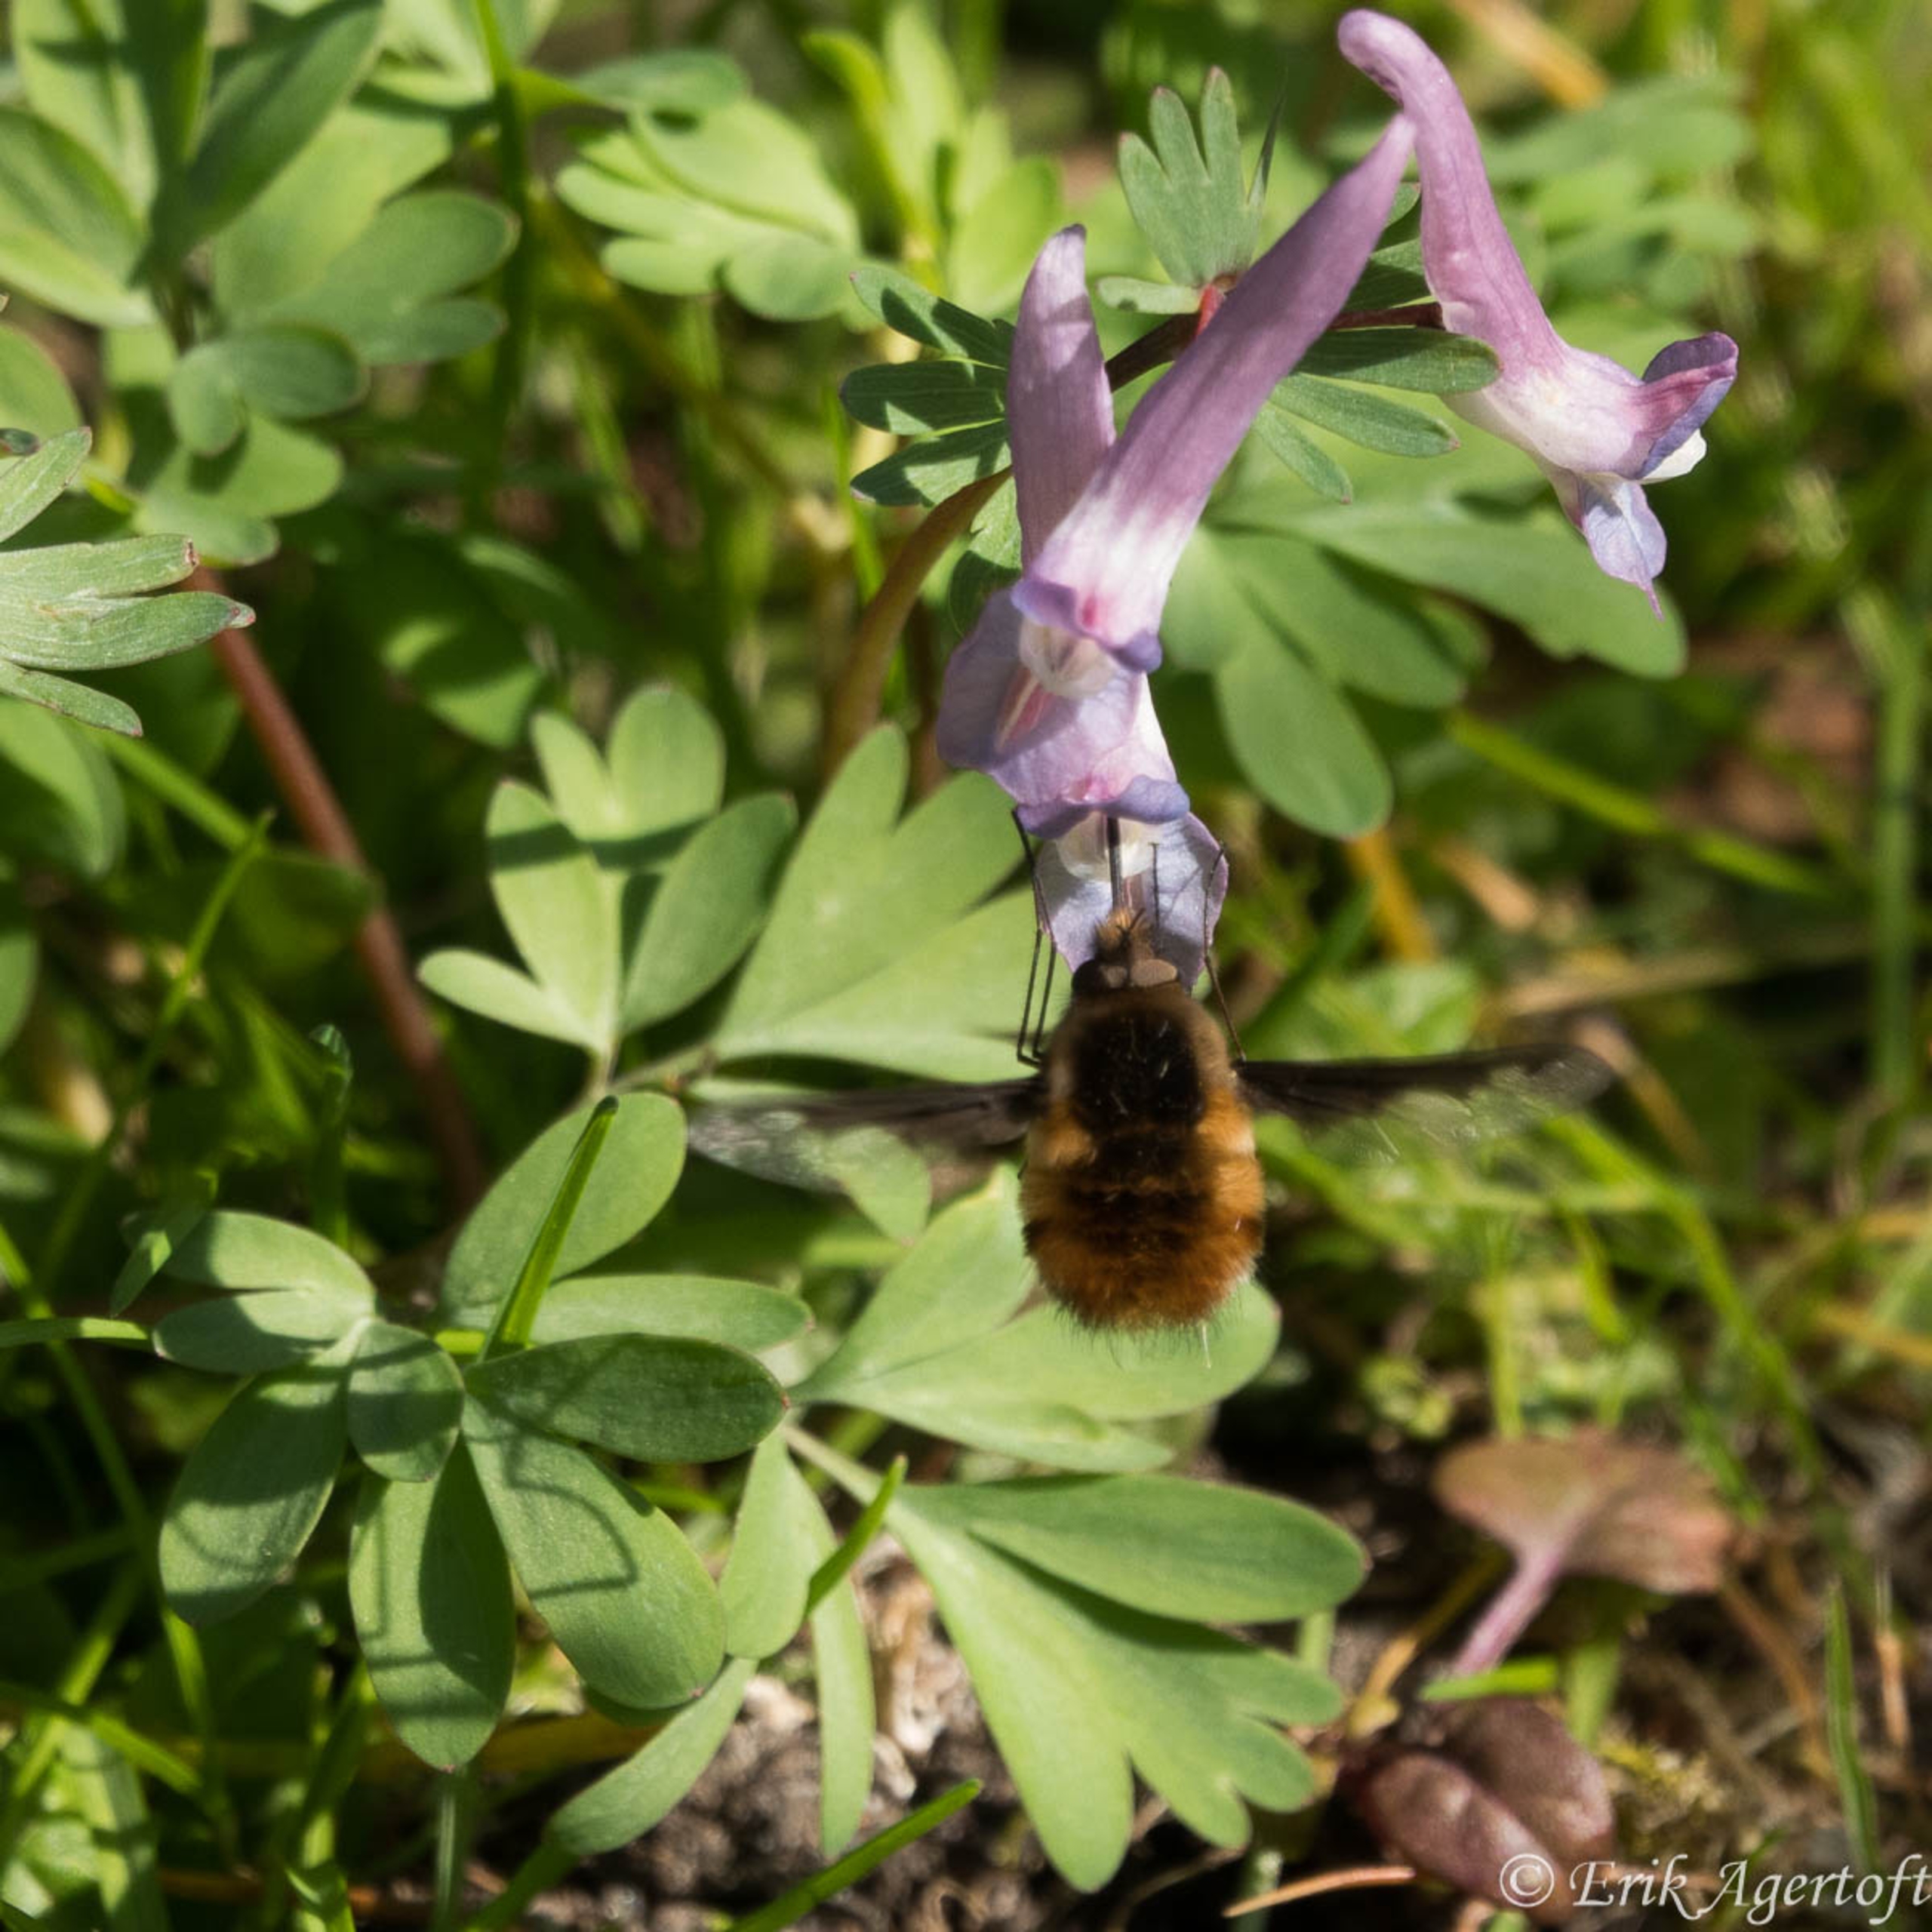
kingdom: Animalia
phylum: Arthropoda
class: Insecta
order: Diptera
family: Bombyliidae
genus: Bombylius
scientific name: Bombylius major
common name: Stor humleflue
